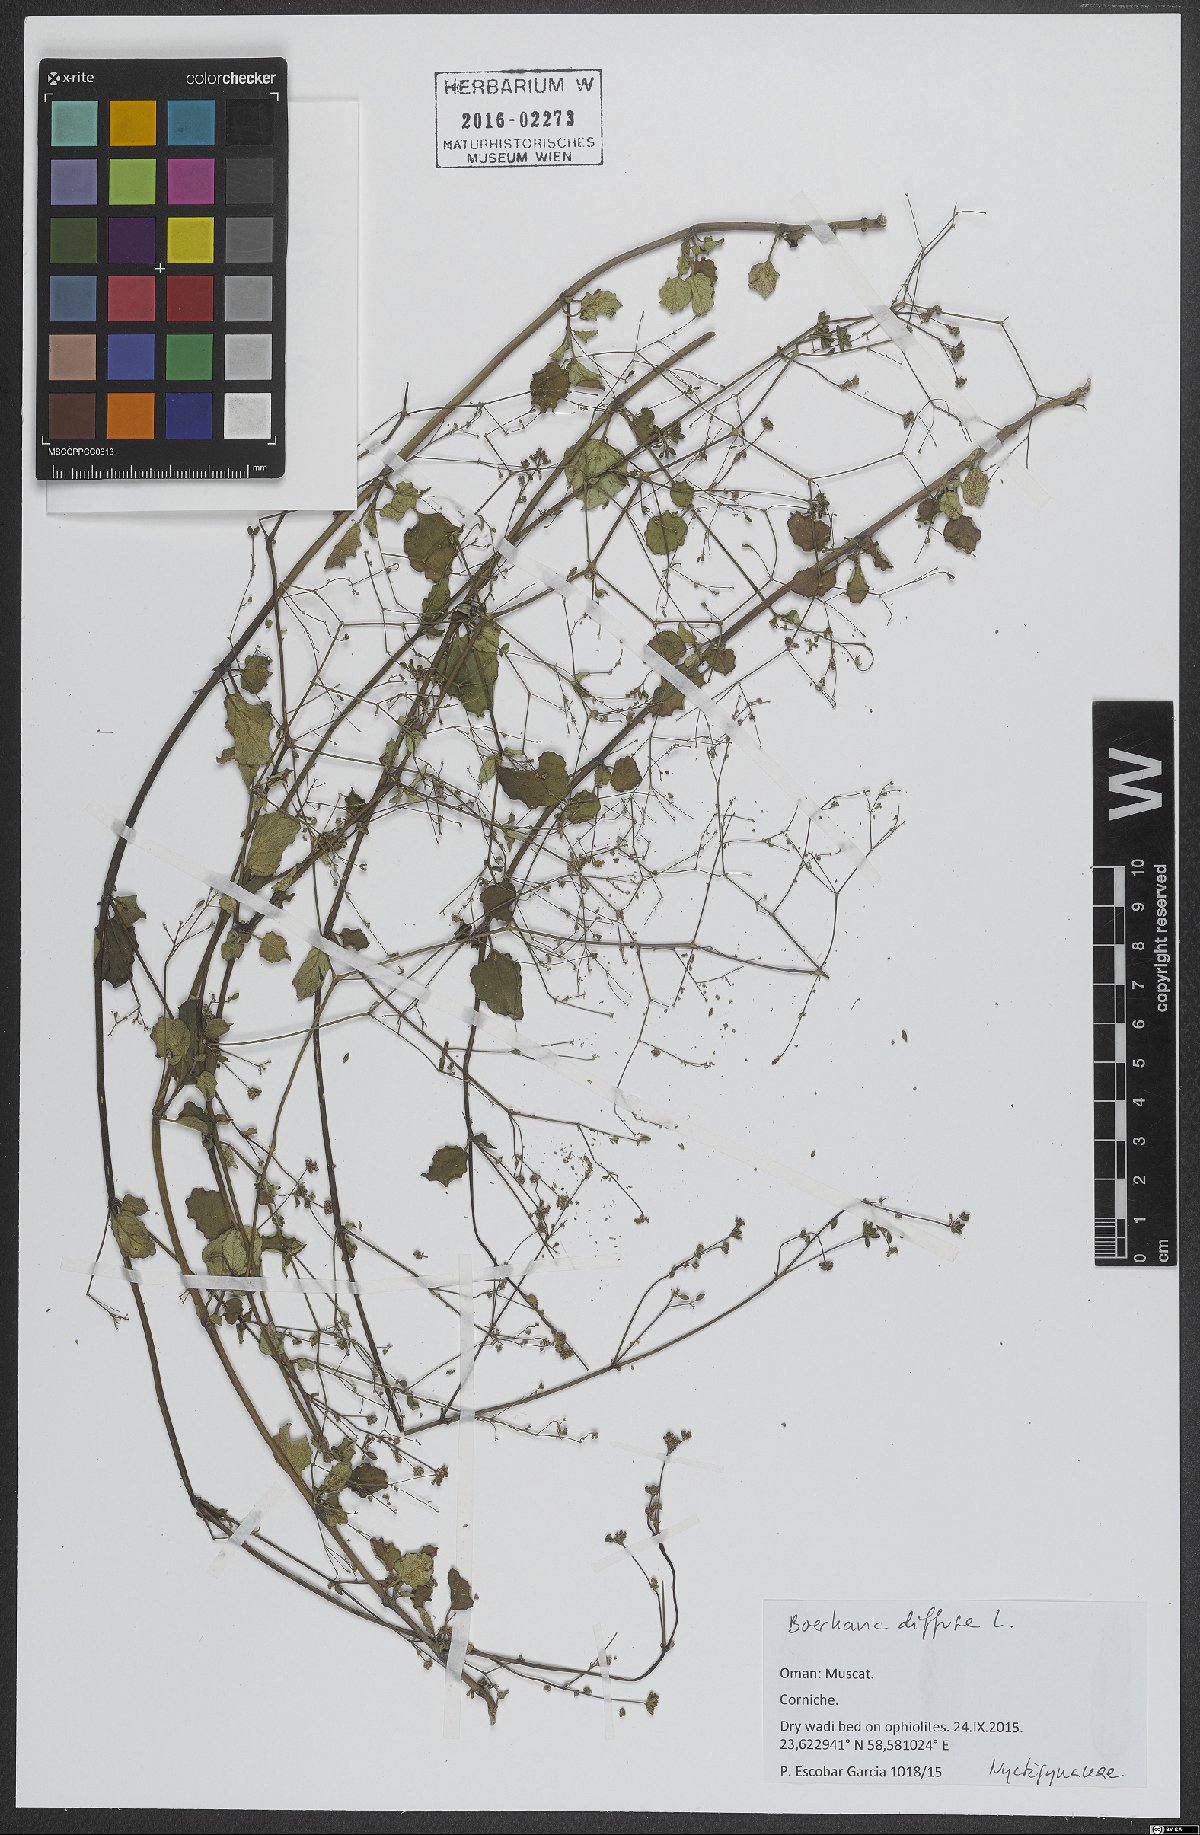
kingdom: Plantae
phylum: Tracheophyta
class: Magnoliopsida
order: Caryophyllales
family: Nyctaginaceae
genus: Boerhavia
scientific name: Boerhavia diffusa
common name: Red spiderling
